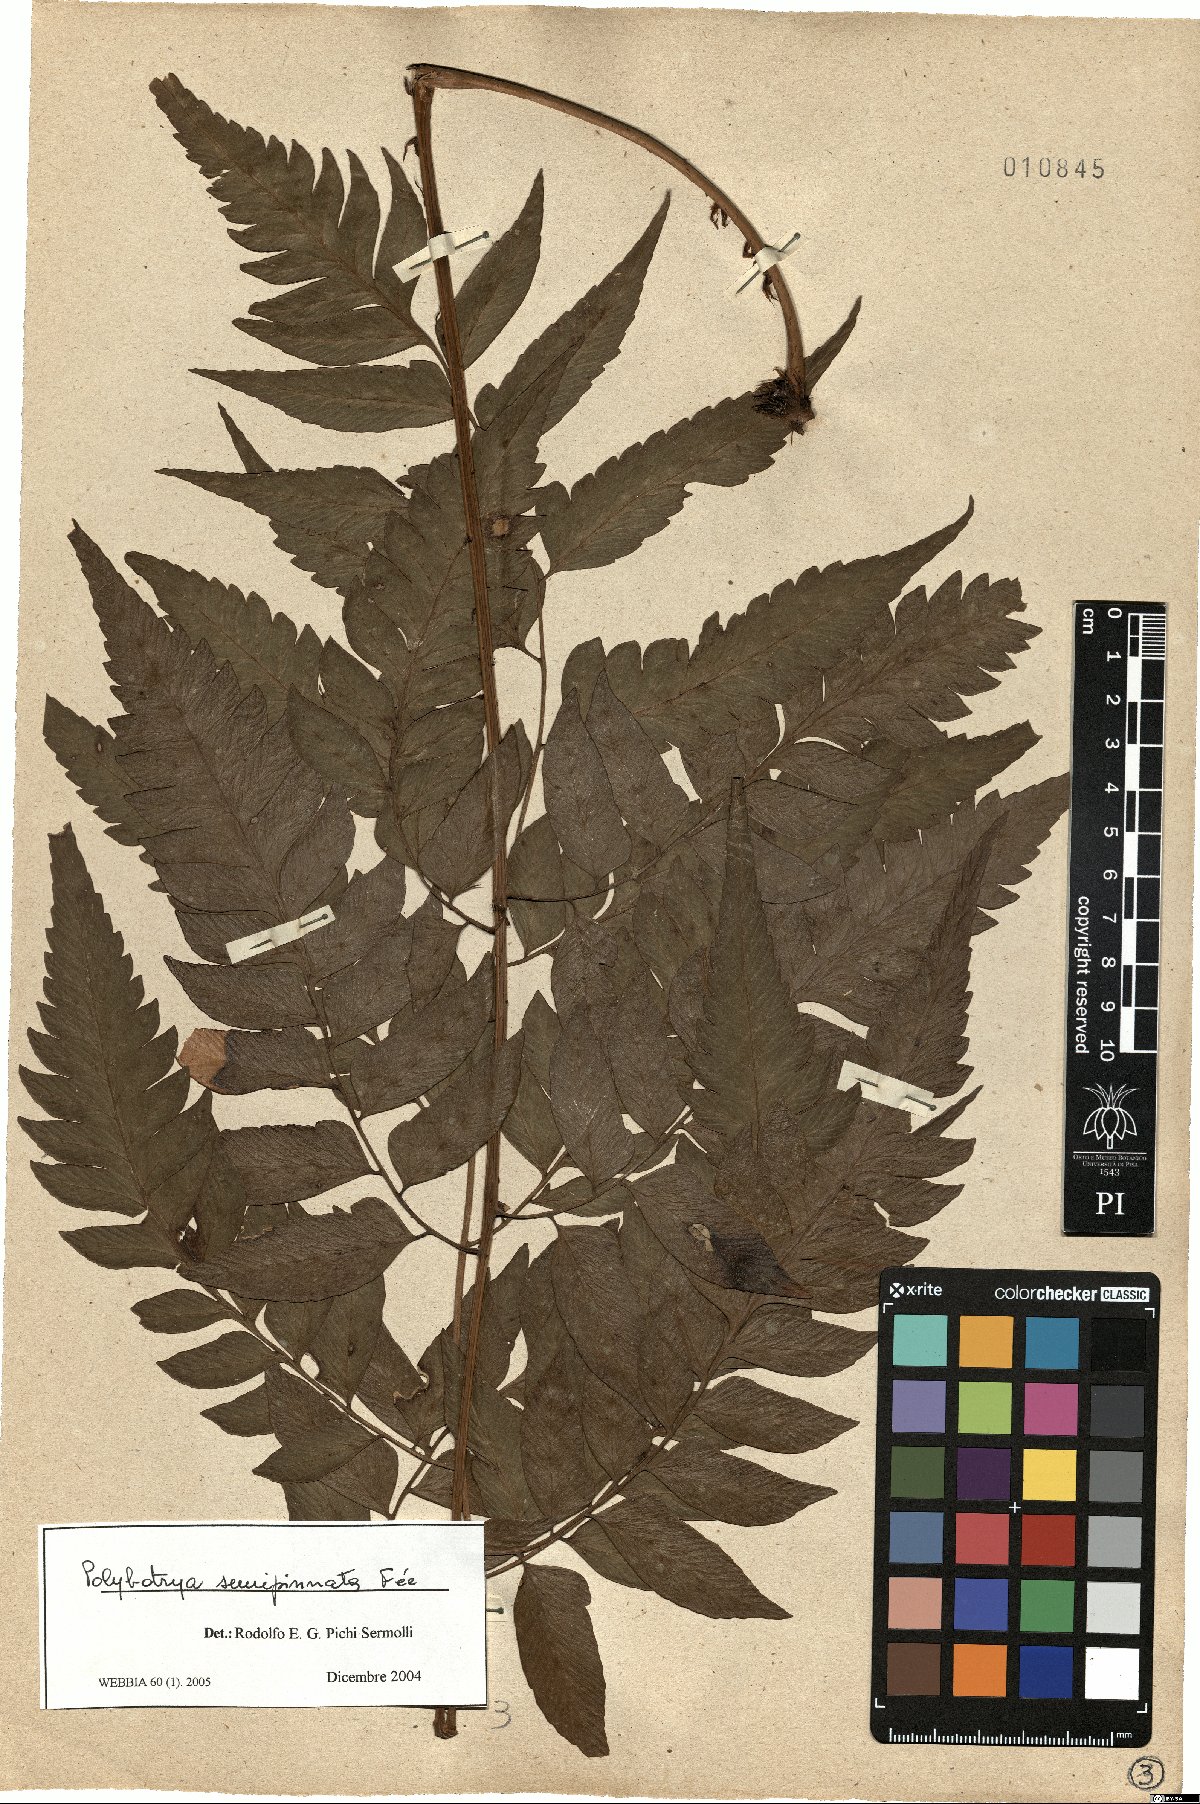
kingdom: Plantae
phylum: Tracheophyta
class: Polypodiopsida
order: Polypodiales
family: Dryopteridaceae
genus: Polybotrya
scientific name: Polybotrya semipinnata
